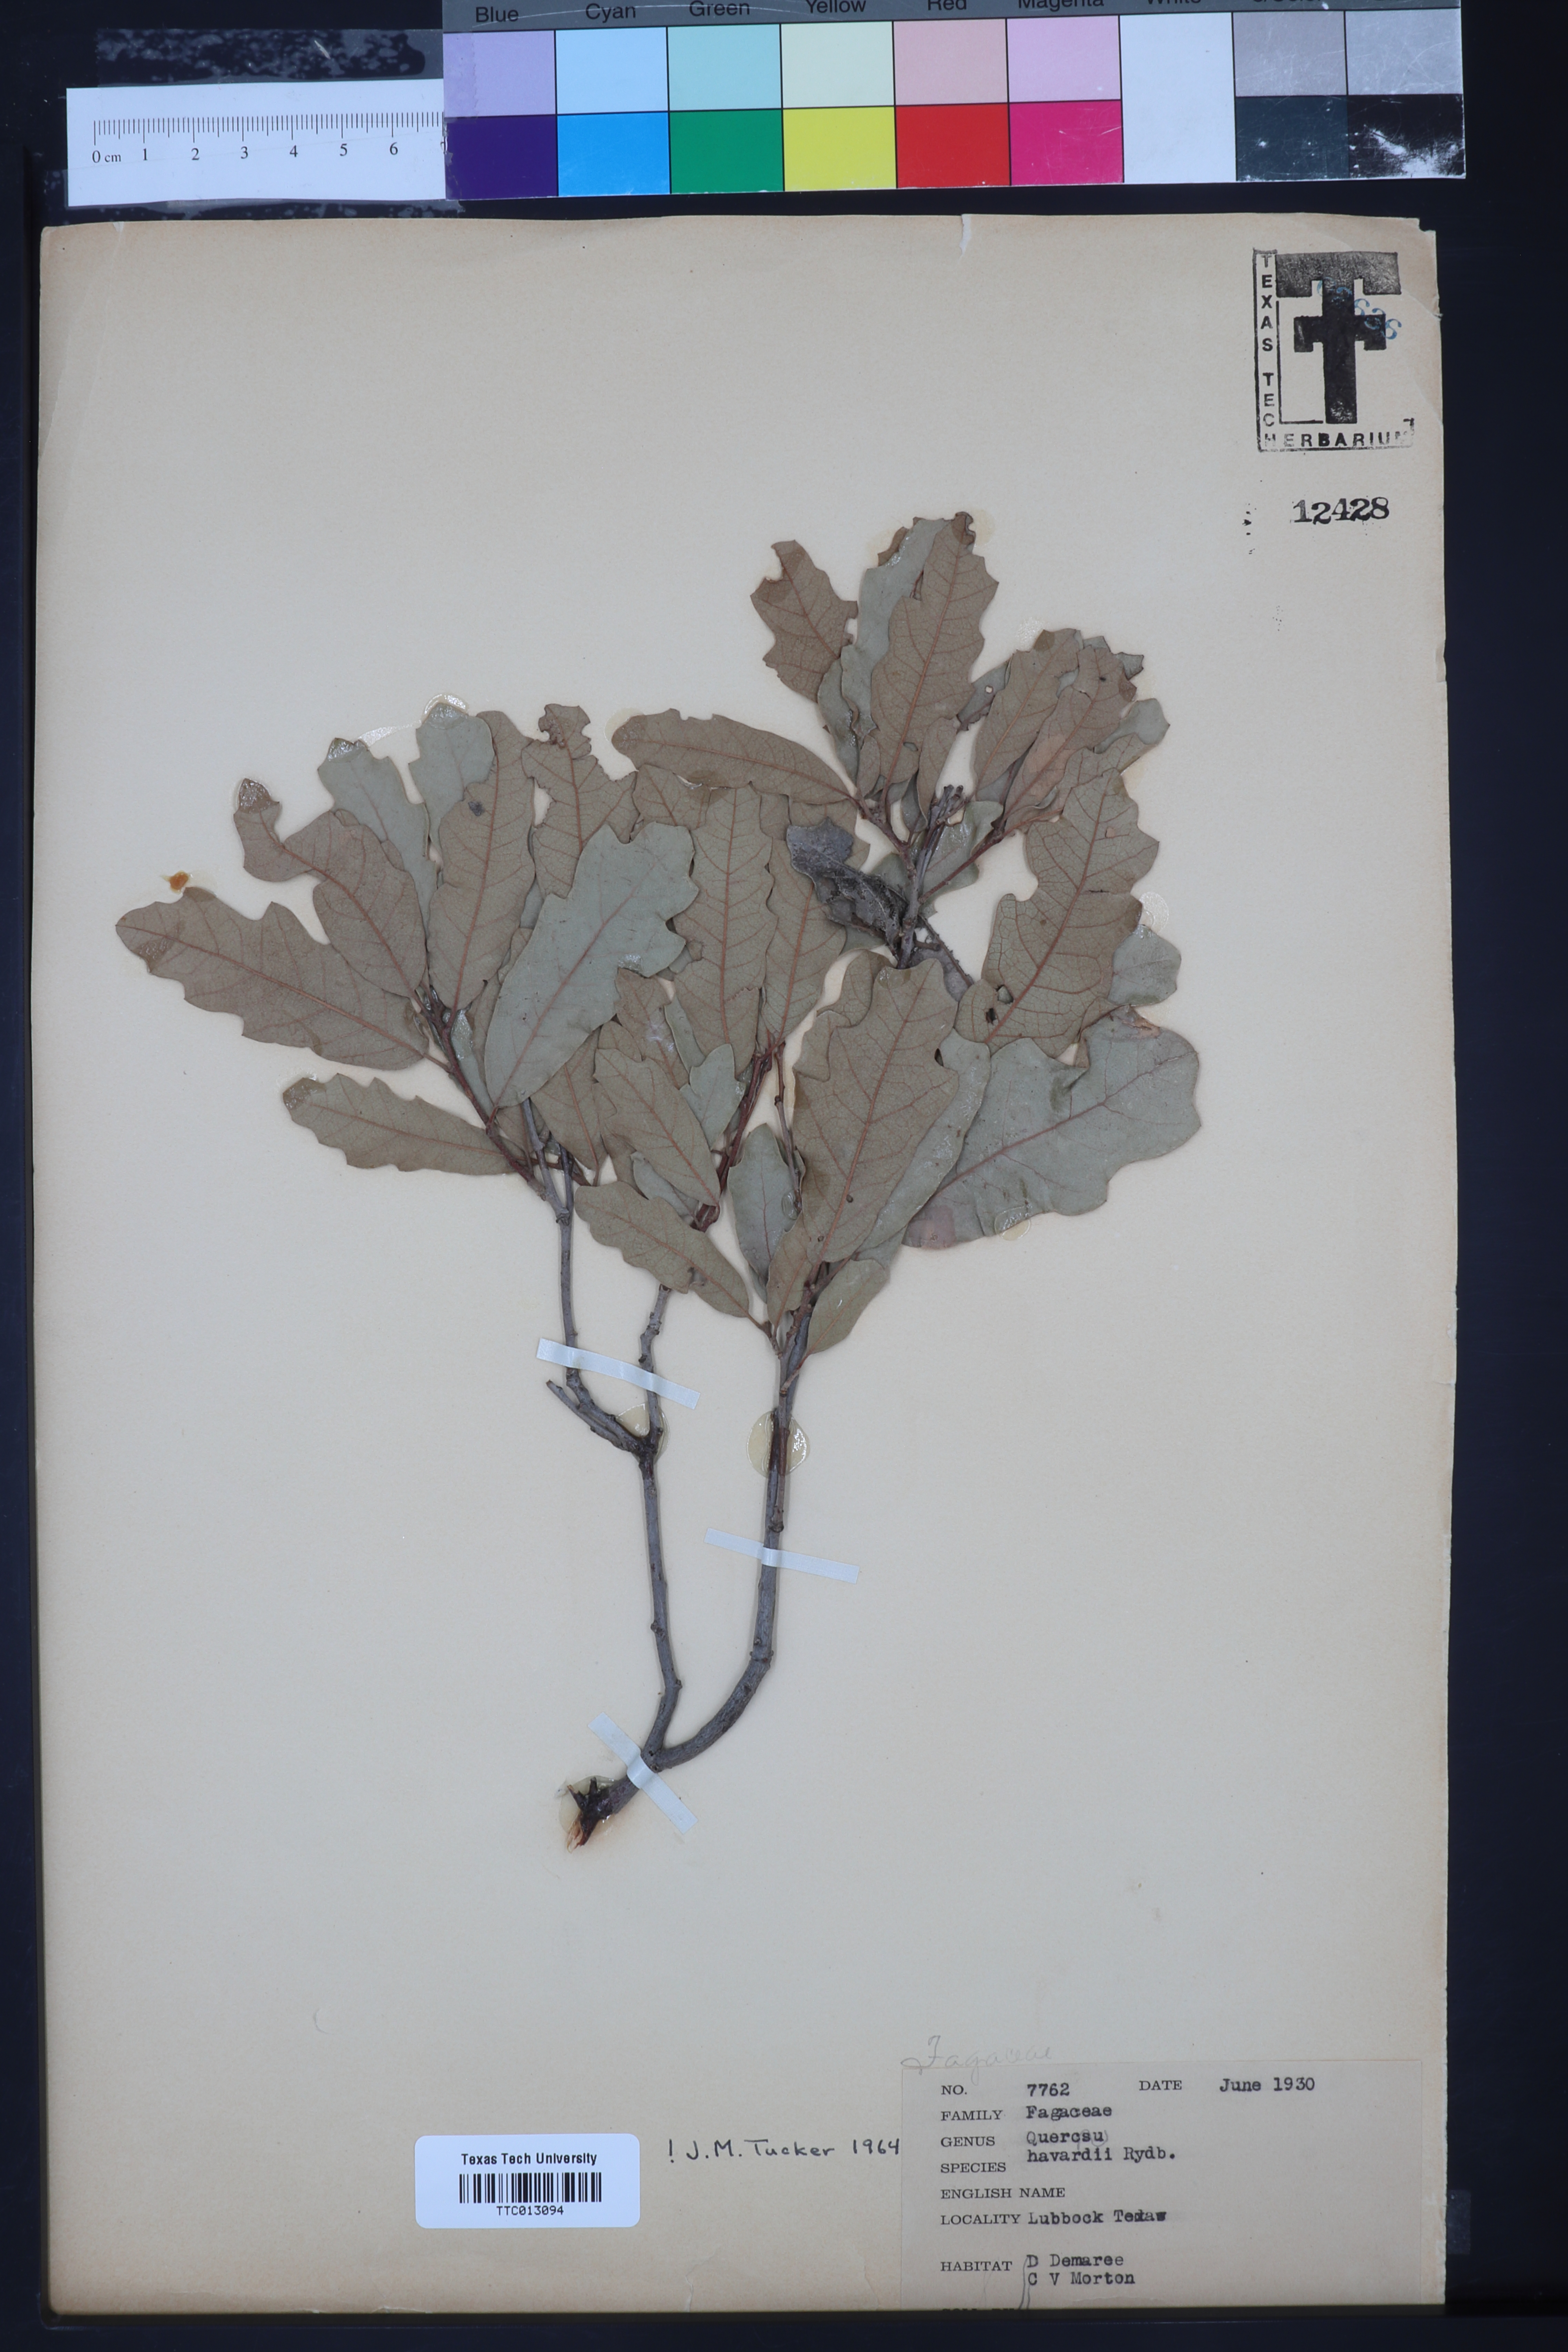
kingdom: Plantae
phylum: Tracheophyta
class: Magnoliopsida
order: Fagales
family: Fagaceae
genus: Quercus
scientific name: Quercus havardii
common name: Shinnery oak
